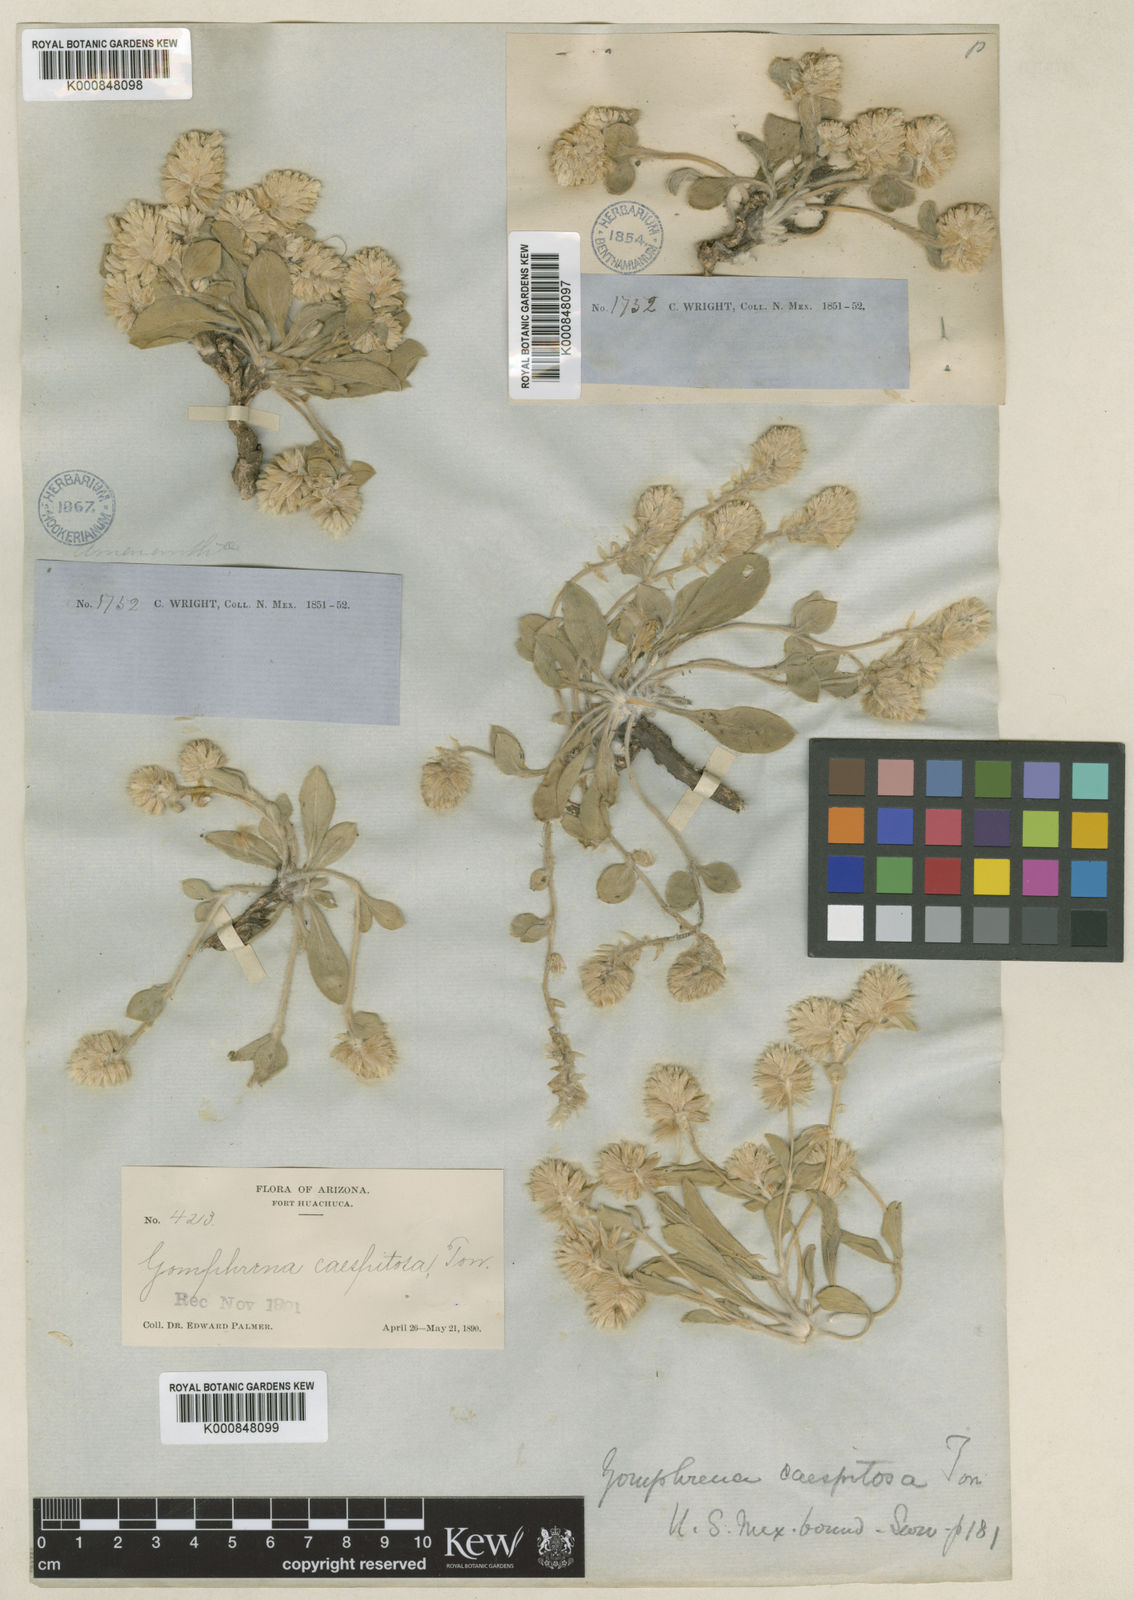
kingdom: Plantae
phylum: Tracheophyta
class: Magnoliopsida
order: Caryophyllales
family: Amaranthaceae
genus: Gomphrena
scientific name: Gomphrena caespitosa
